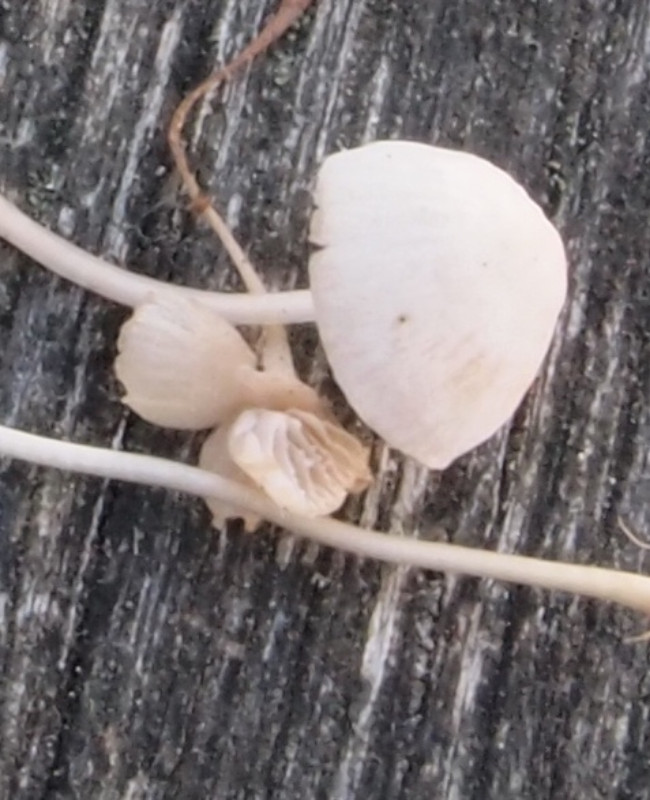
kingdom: Fungi
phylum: Basidiomycota
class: Agaricomycetes
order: Agaricales
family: Mycenaceae
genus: Mycena
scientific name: Mycena cinerella
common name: mel-huesvamp
